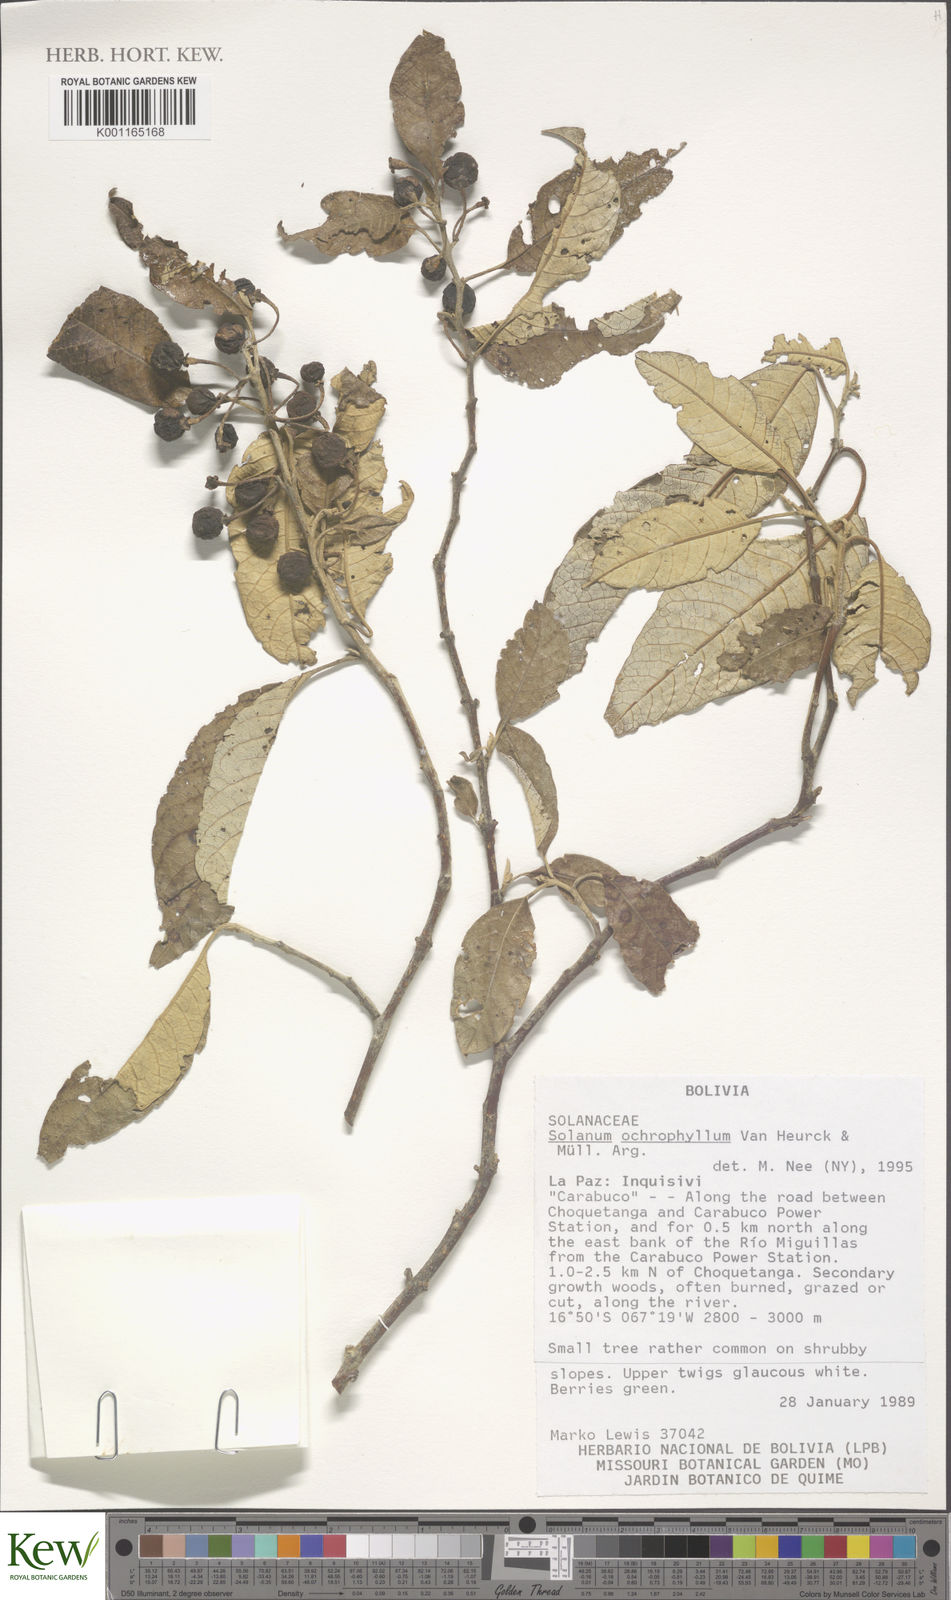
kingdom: Plantae
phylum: Tracheophyta
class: Magnoliopsida
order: Solanales
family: Solanaceae
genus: Solanum
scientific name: Solanum ochrophyllum
